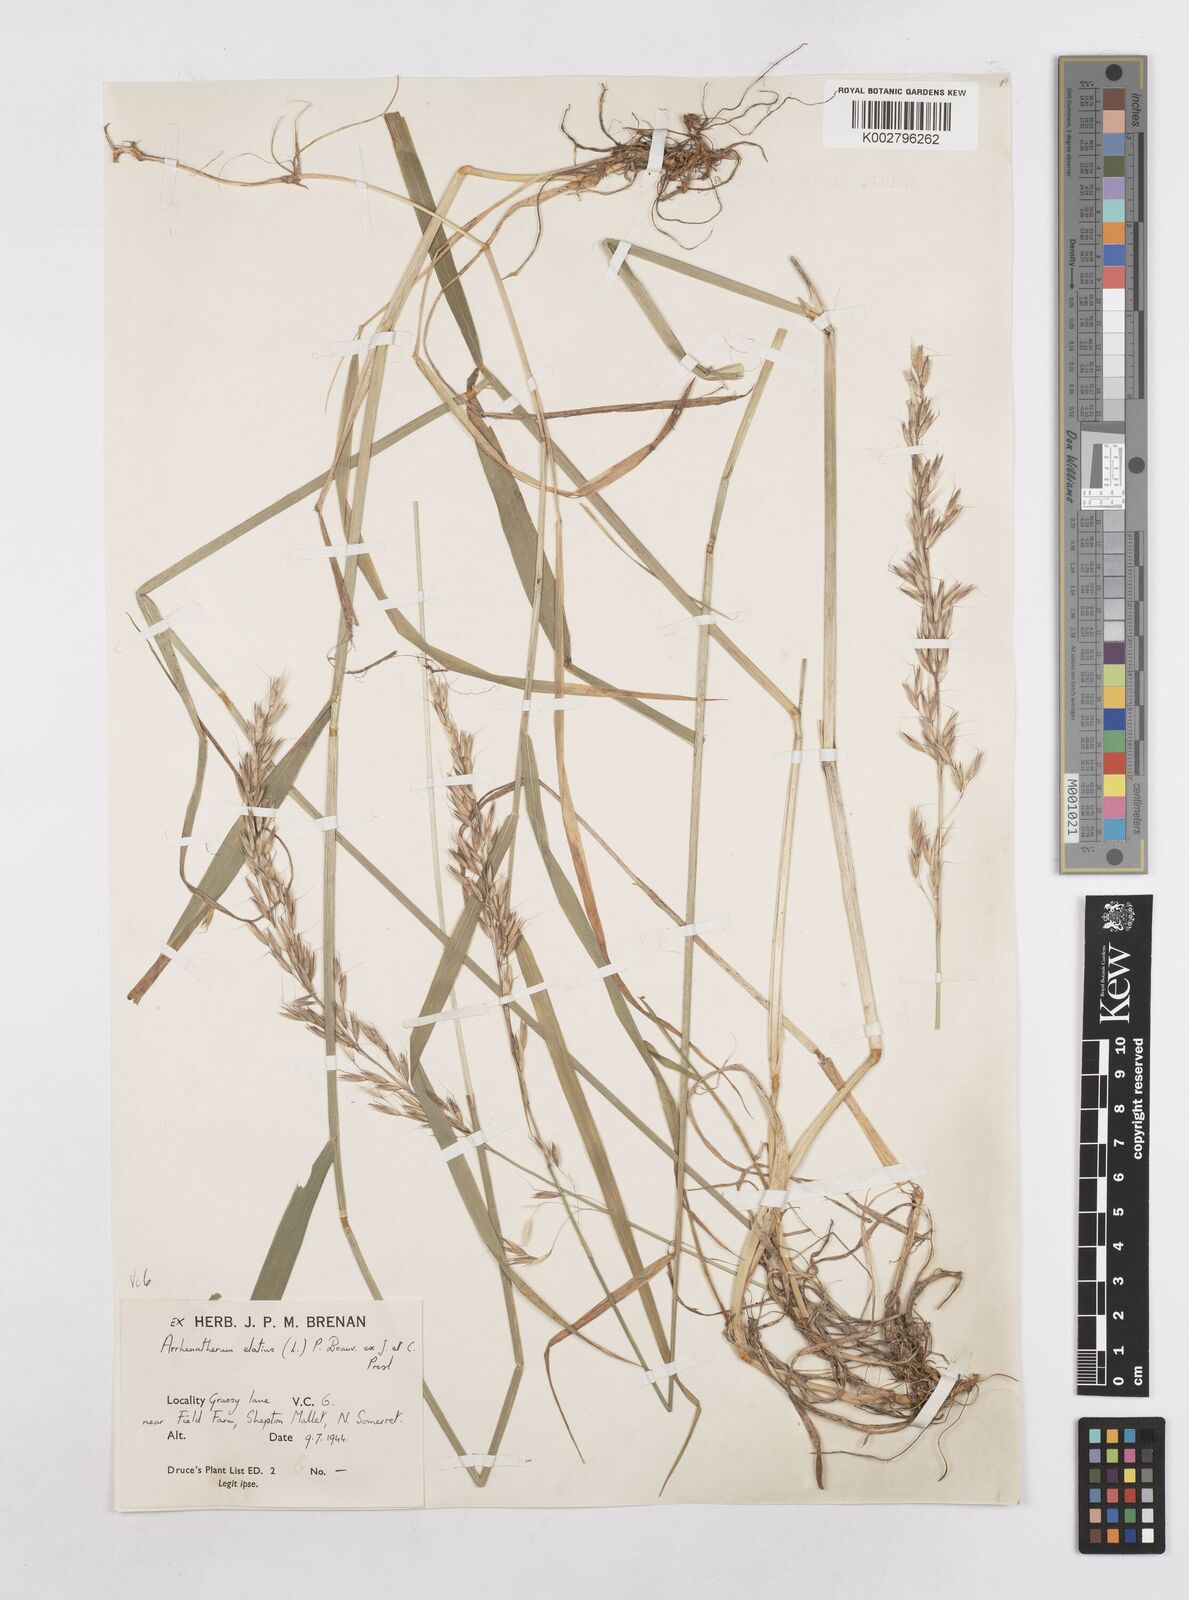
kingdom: Plantae
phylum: Tracheophyta
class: Liliopsida
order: Poales
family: Poaceae
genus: Arrhenatherum
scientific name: Arrhenatherum elatius
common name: Tall oatgrass
